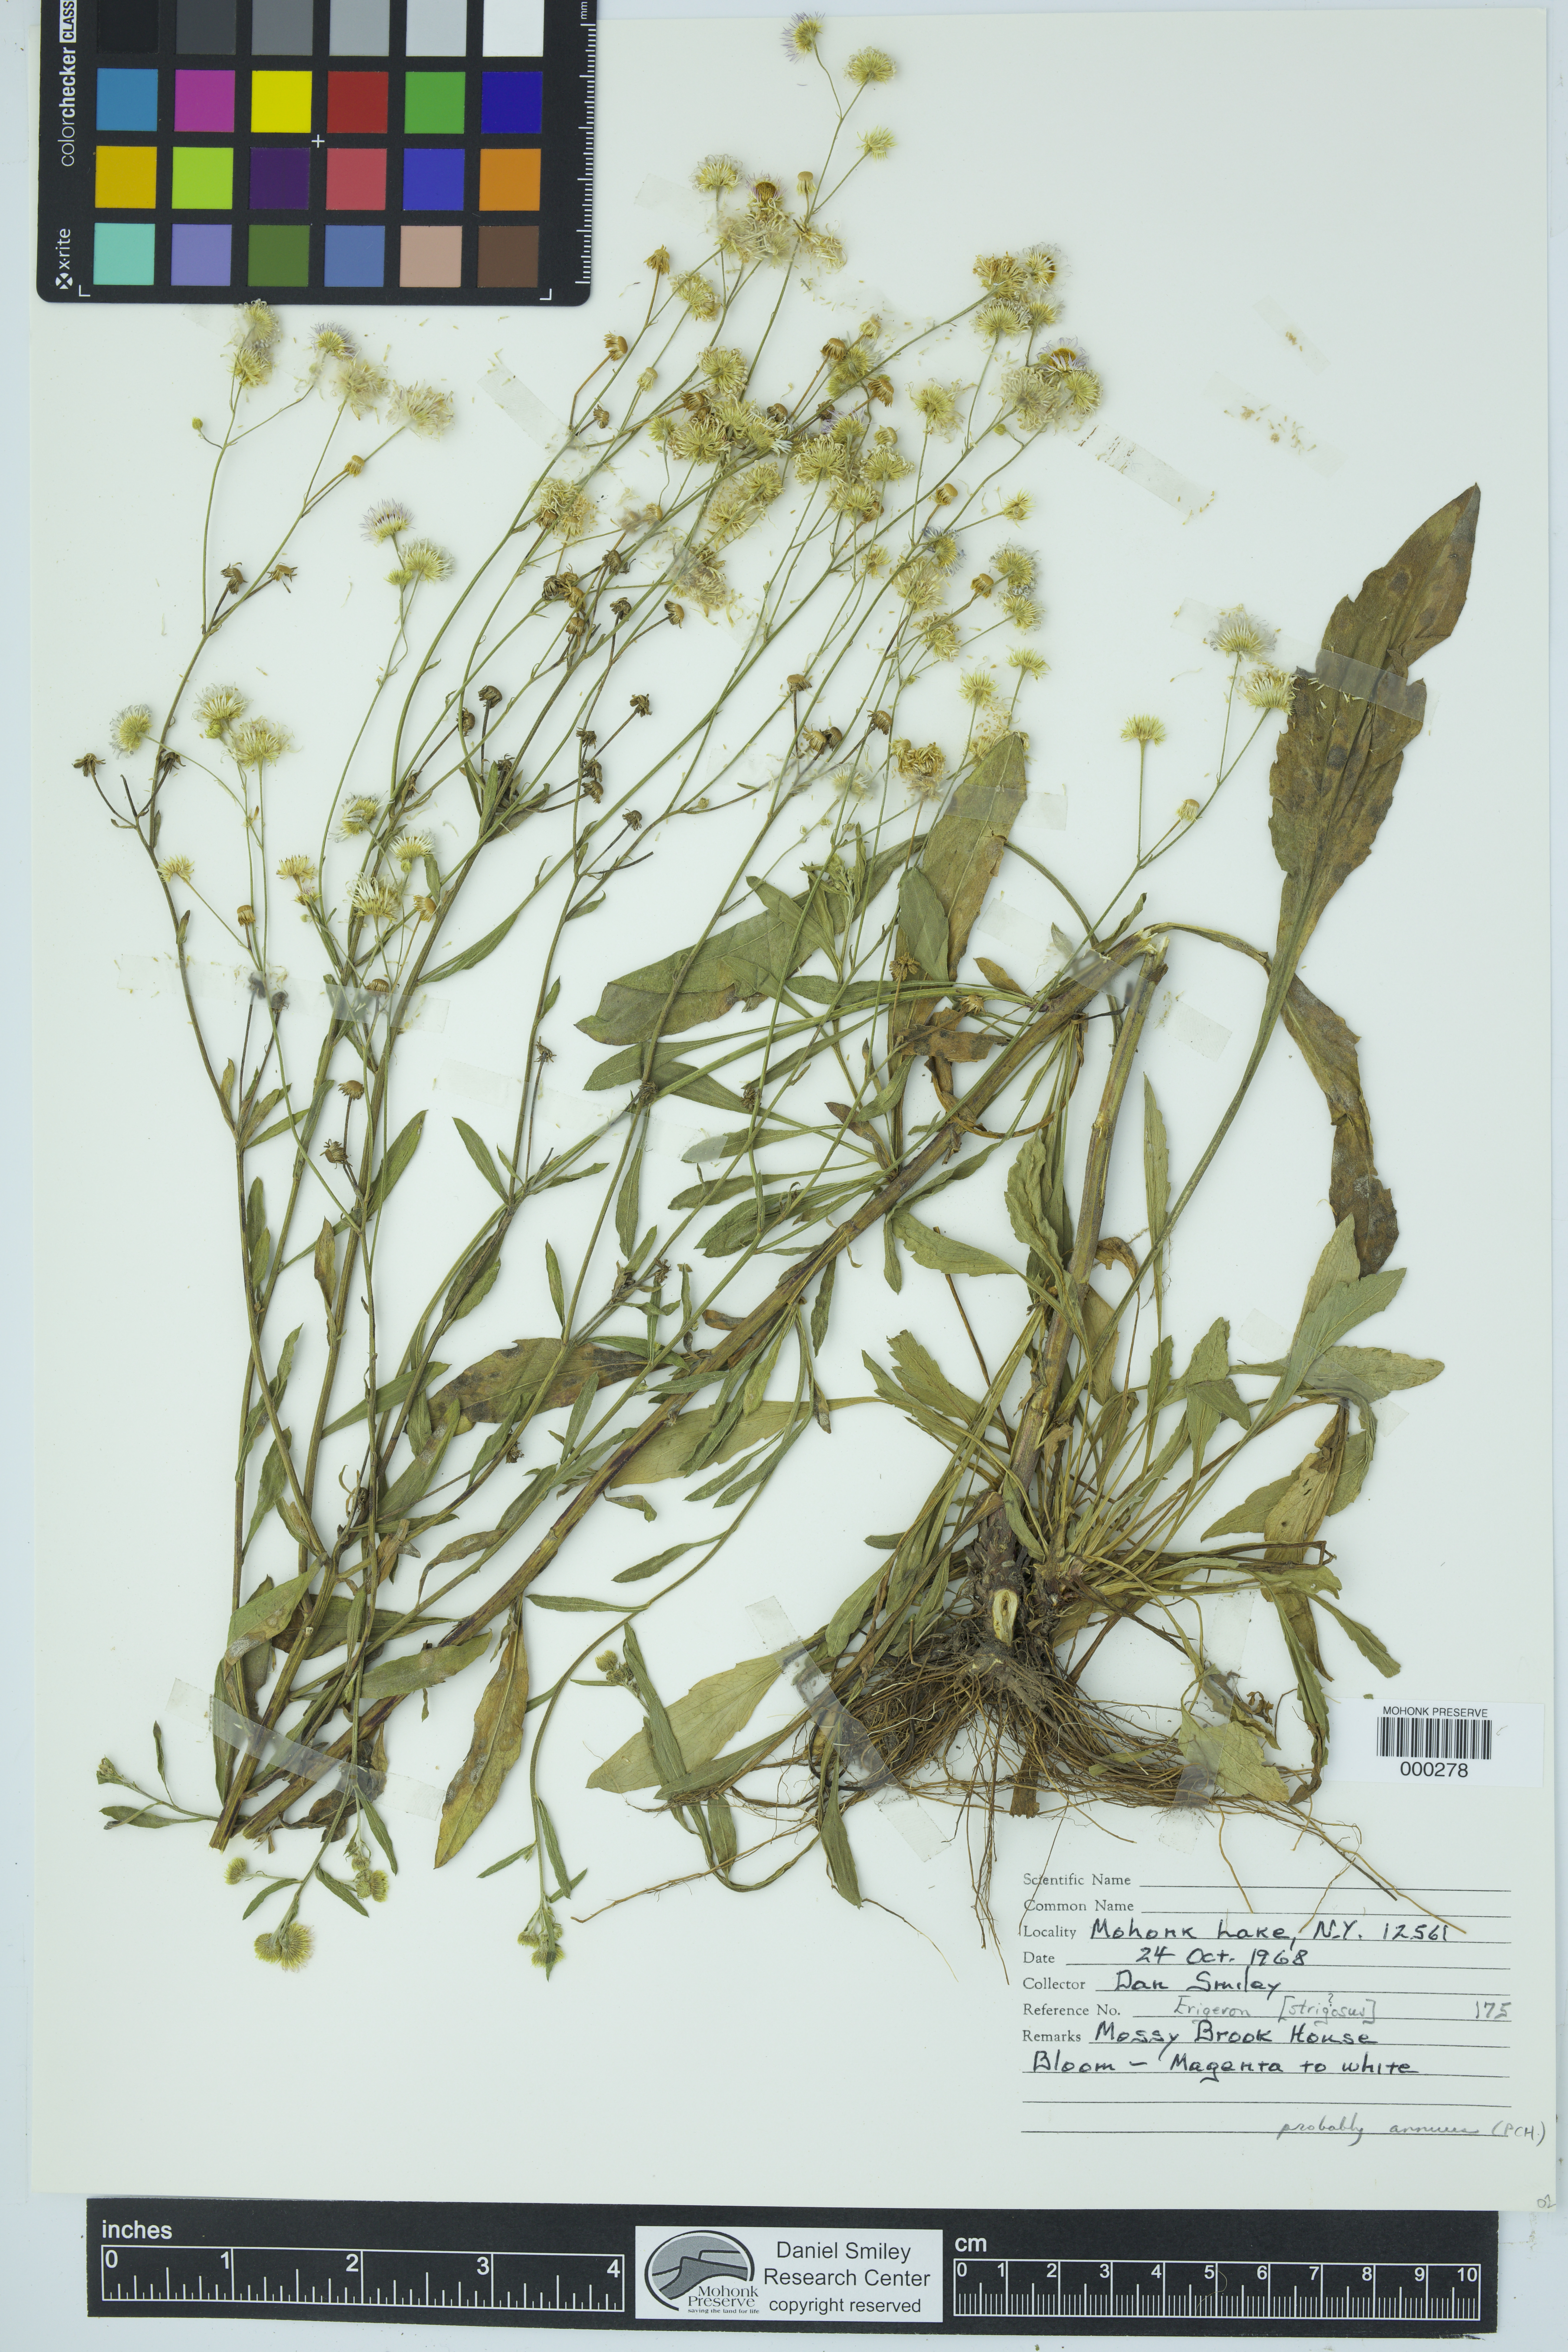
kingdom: Plantae
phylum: Tracheophyta
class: Magnoliopsida
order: Asterales
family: Asteraceae
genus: Erigeron
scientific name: Erigeron annuus
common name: Tall fleabane
